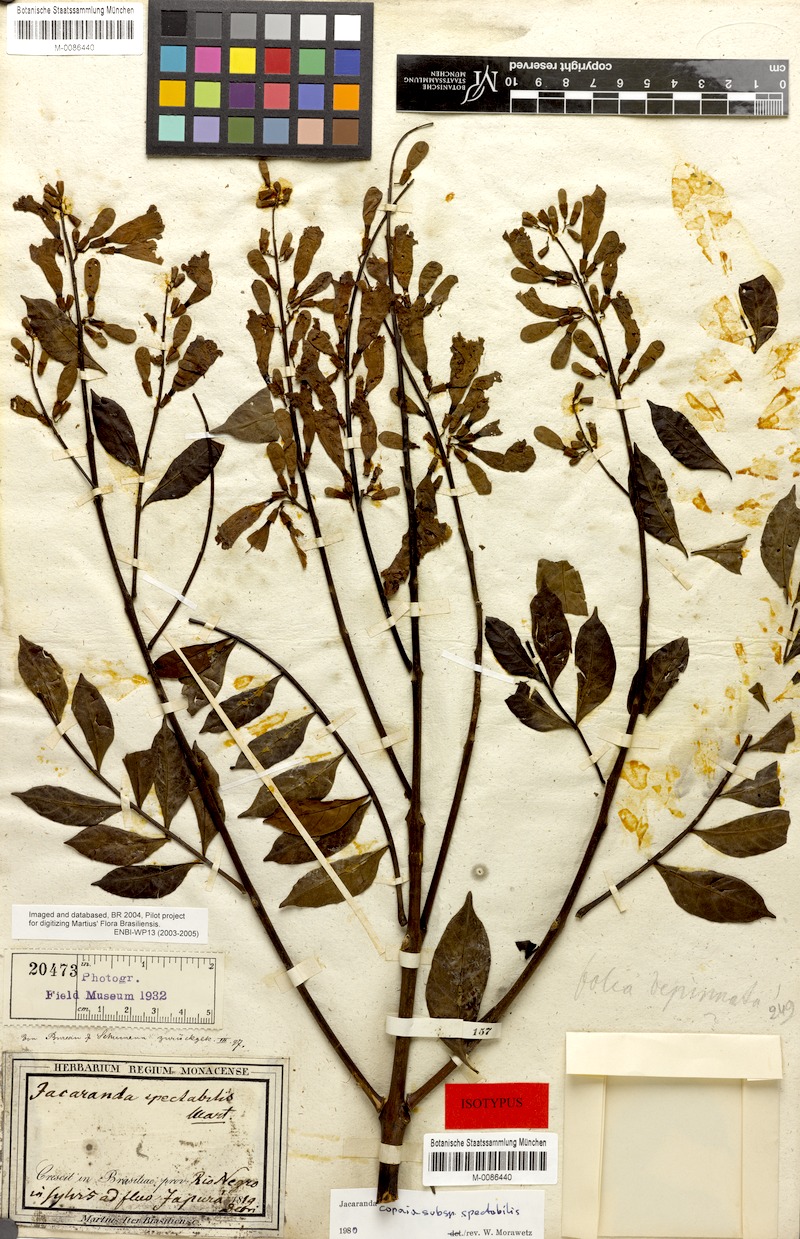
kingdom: Plantae
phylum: Tracheophyta
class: Magnoliopsida
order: Lamiales
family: Bignoniaceae
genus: Jacaranda
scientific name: Jacaranda copaia
